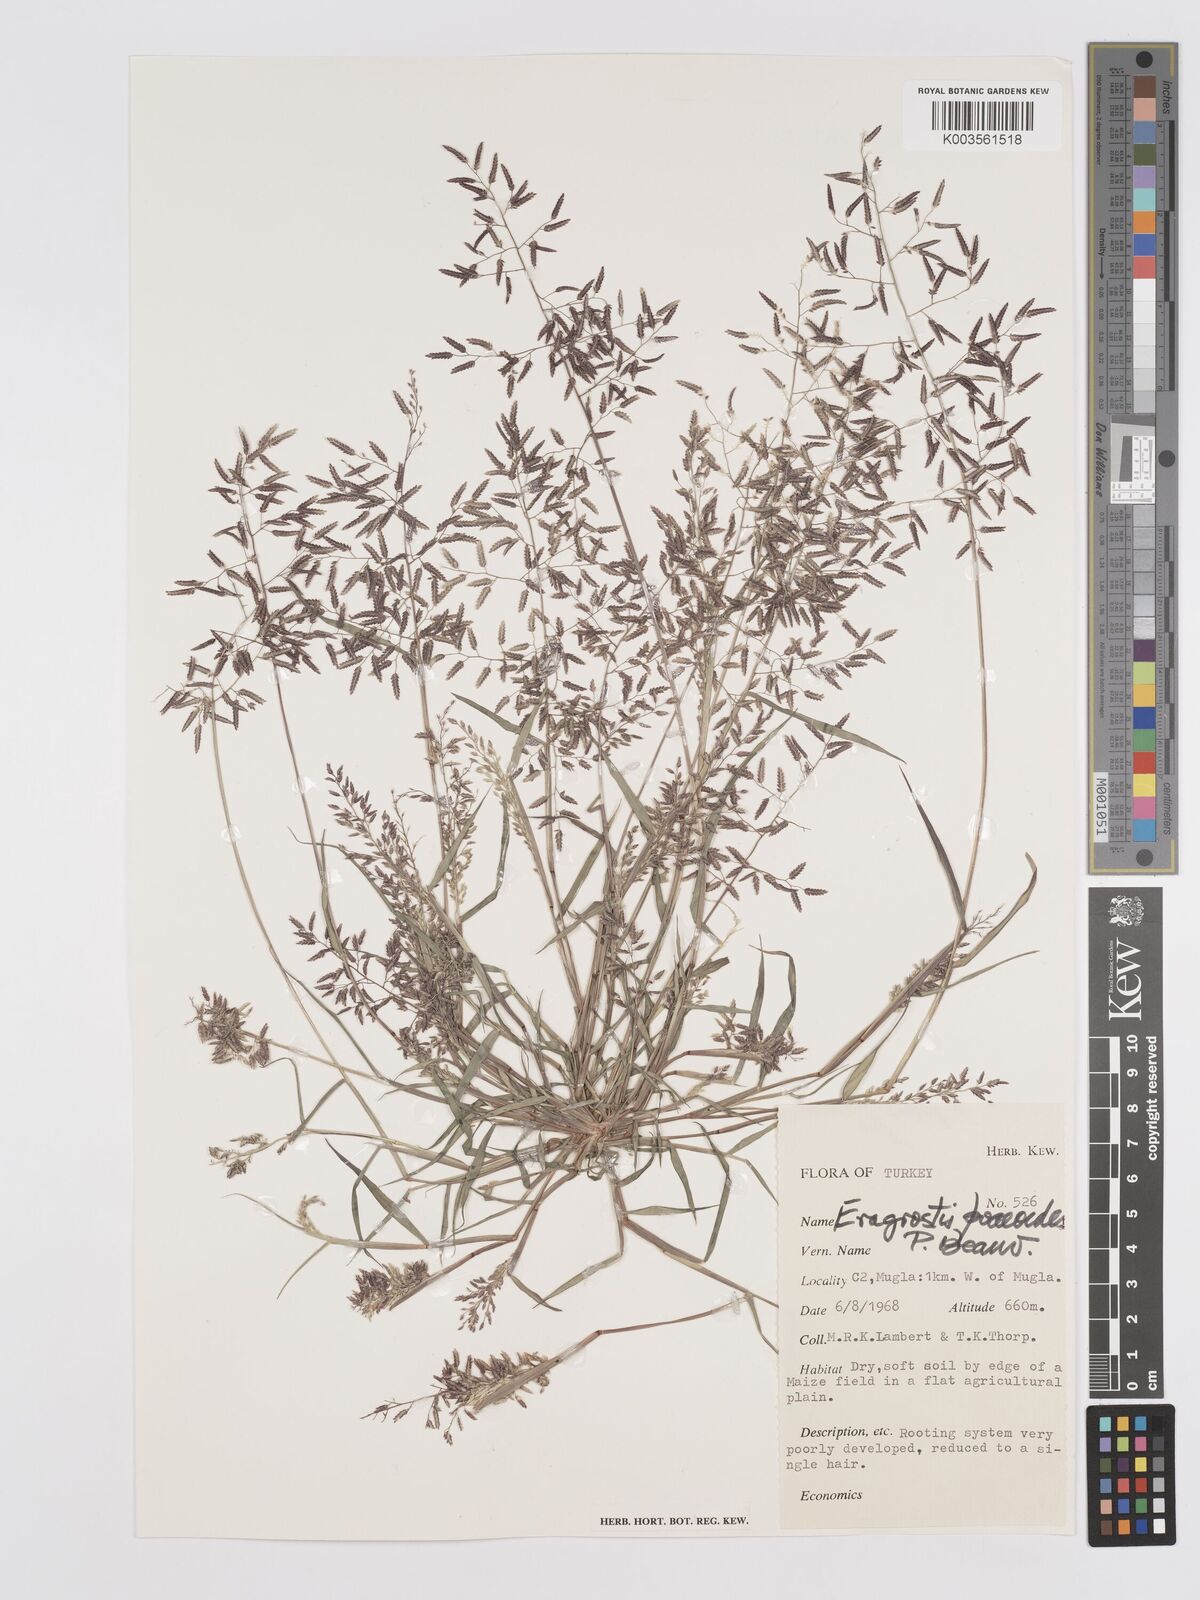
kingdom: Plantae
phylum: Tracheophyta
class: Liliopsida
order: Poales
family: Poaceae
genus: Eragrostis
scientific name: Eragrostis minor
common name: Small love-grass
